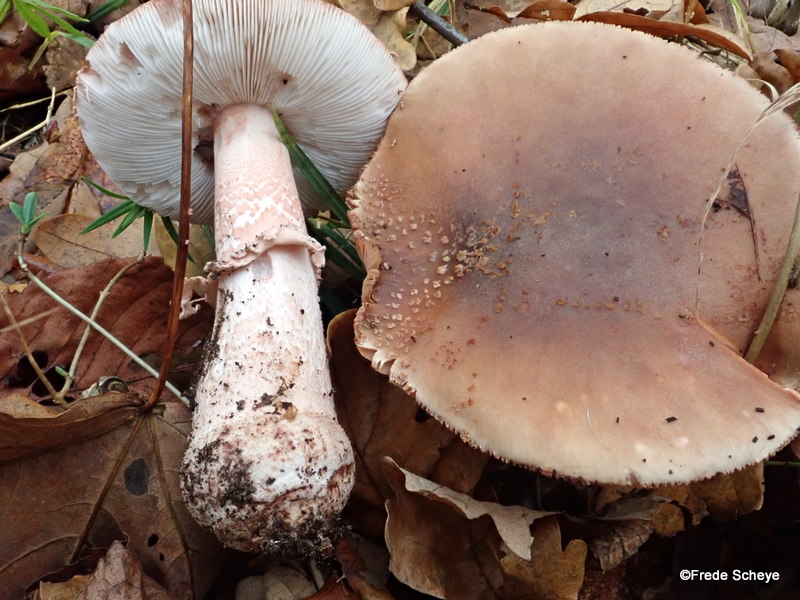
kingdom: Fungi
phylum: Basidiomycota
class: Agaricomycetes
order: Agaricales
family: Amanitaceae
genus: Amanita
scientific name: Amanita rubescens
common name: rødmende fluesvamp
